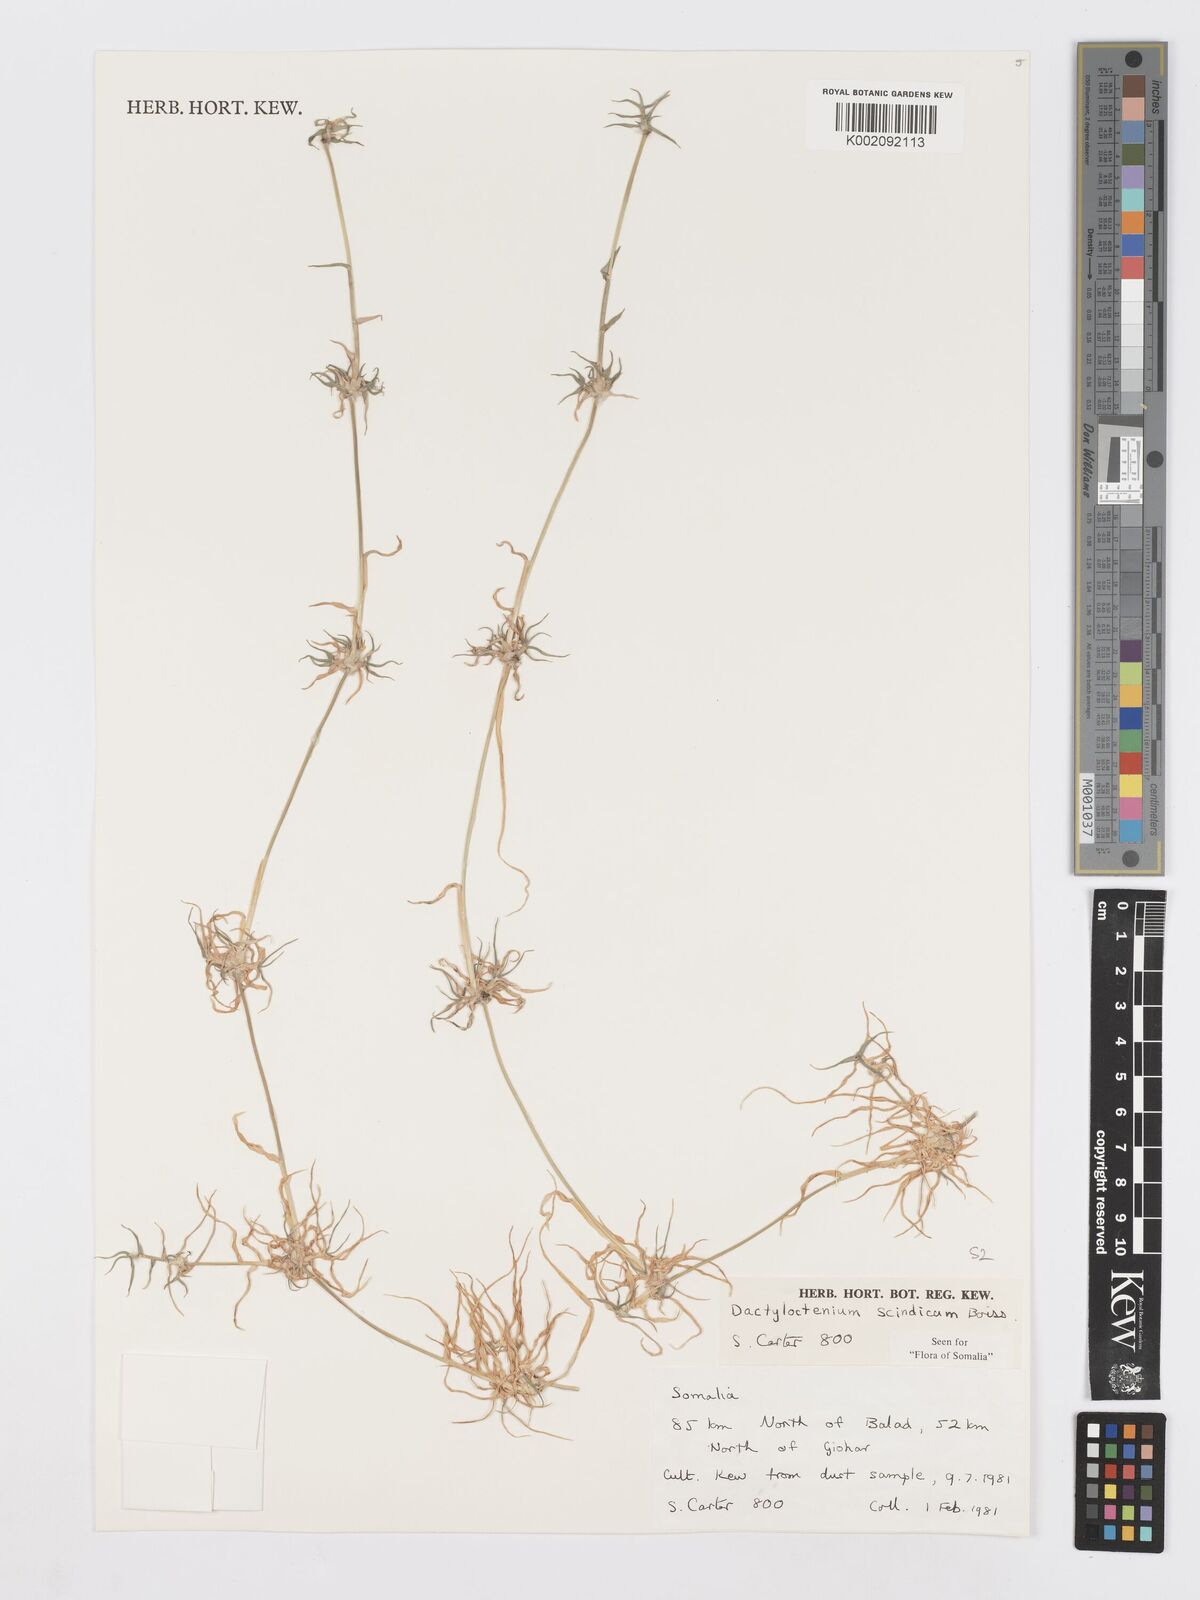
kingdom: Plantae
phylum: Tracheophyta
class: Liliopsida
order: Poales
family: Poaceae
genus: Dactyloctenium
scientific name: Dactyloctenium scindicum
